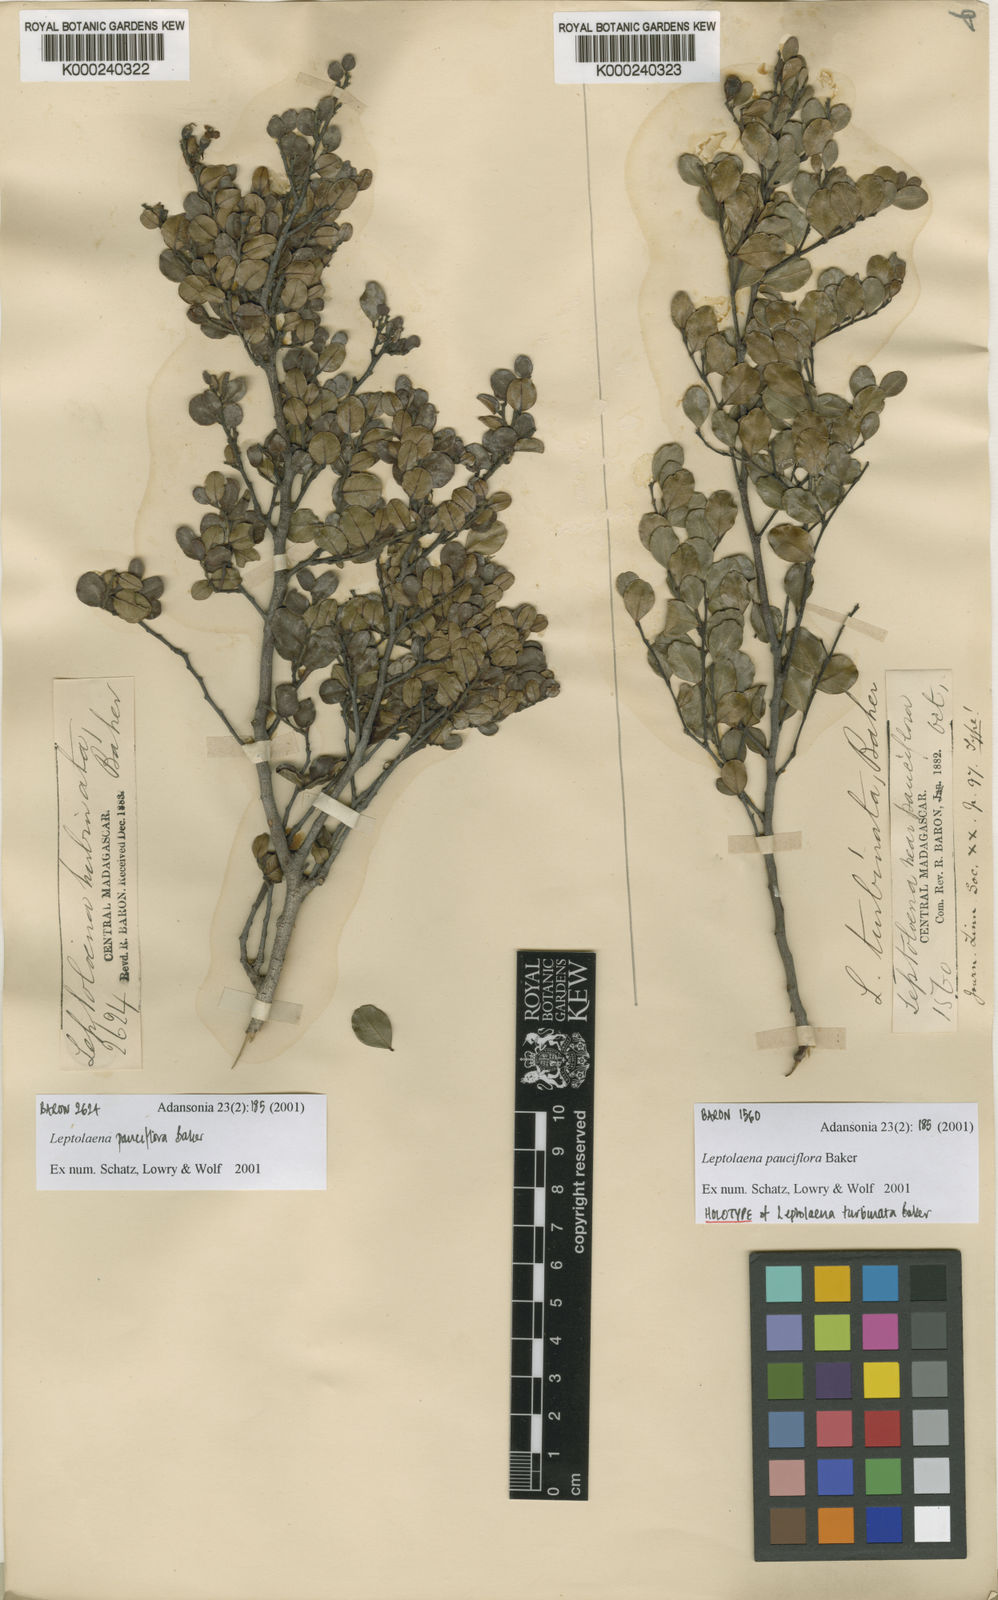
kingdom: Plantae
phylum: Tracheophyta
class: Magnoliopsida
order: Malvales
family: Sarcolaenaceae
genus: Leptolaena
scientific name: Leptolaena pauciflora
